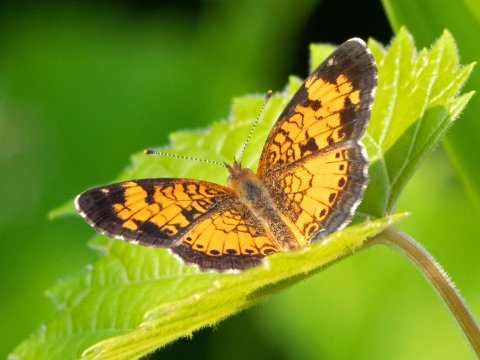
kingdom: Animalia
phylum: Arthropoda
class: Insecta
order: Lepidoptera
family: Nymphalidae
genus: Phyciodes
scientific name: Phyciodes
